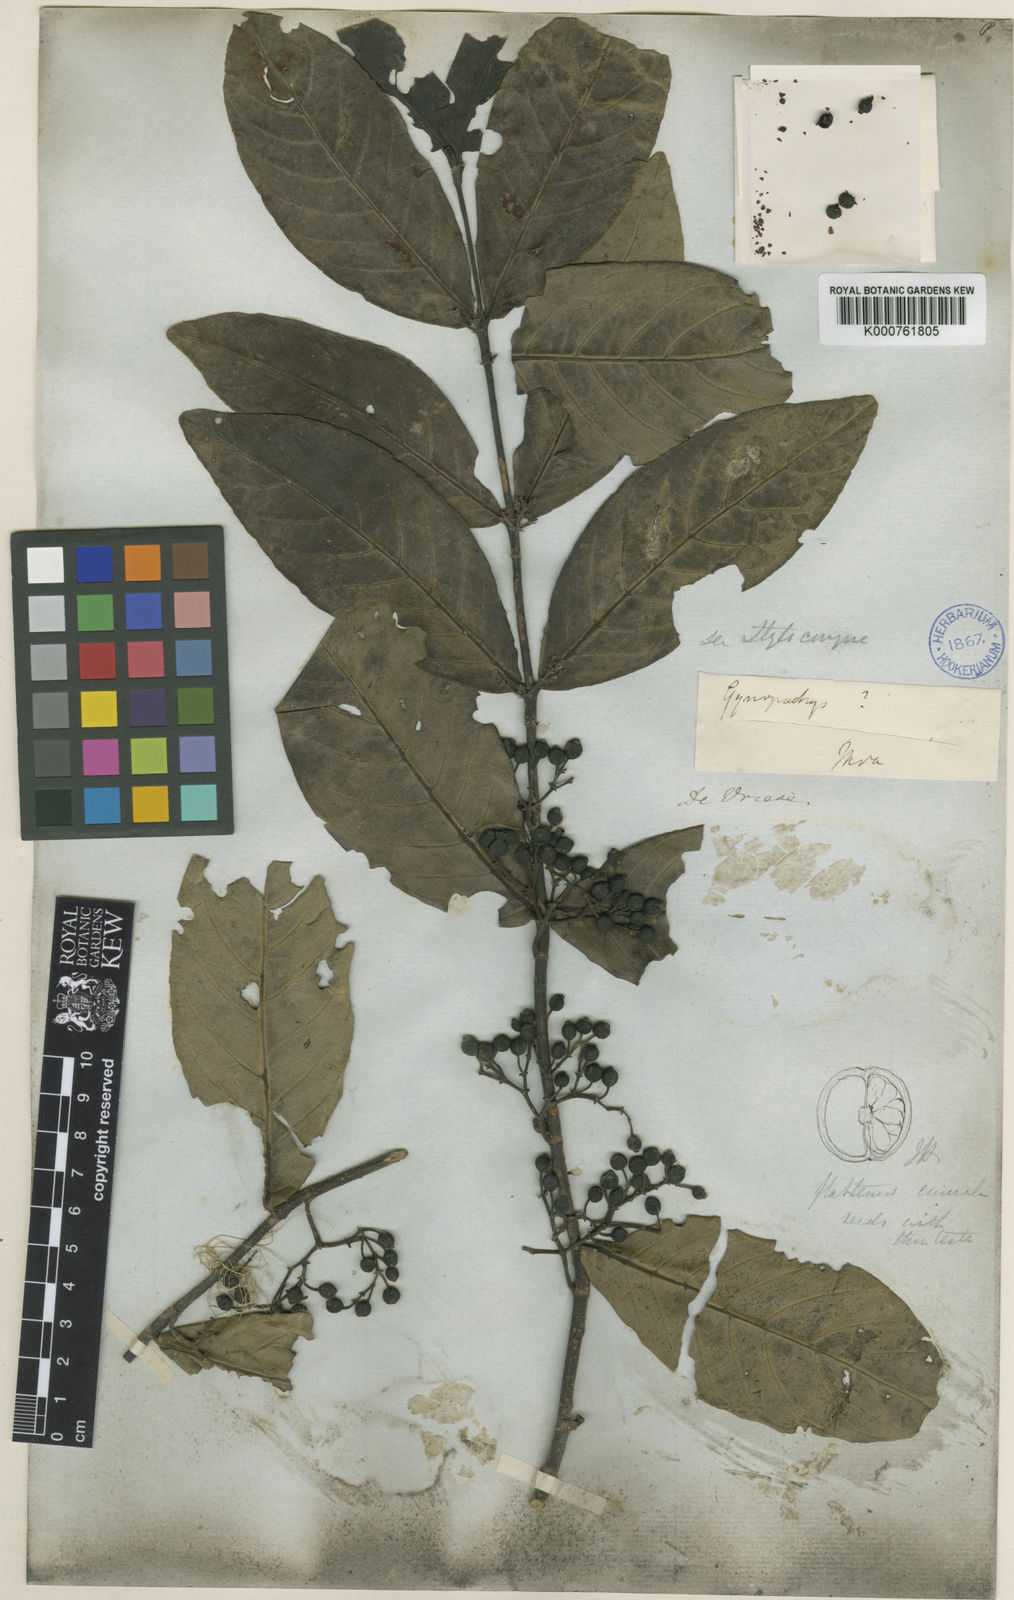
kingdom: Plantae
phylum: Tracheophyta
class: Magnoliopsida
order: Gentianales
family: Rubiaceae
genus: Aidia
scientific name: Aidia corymbosa
